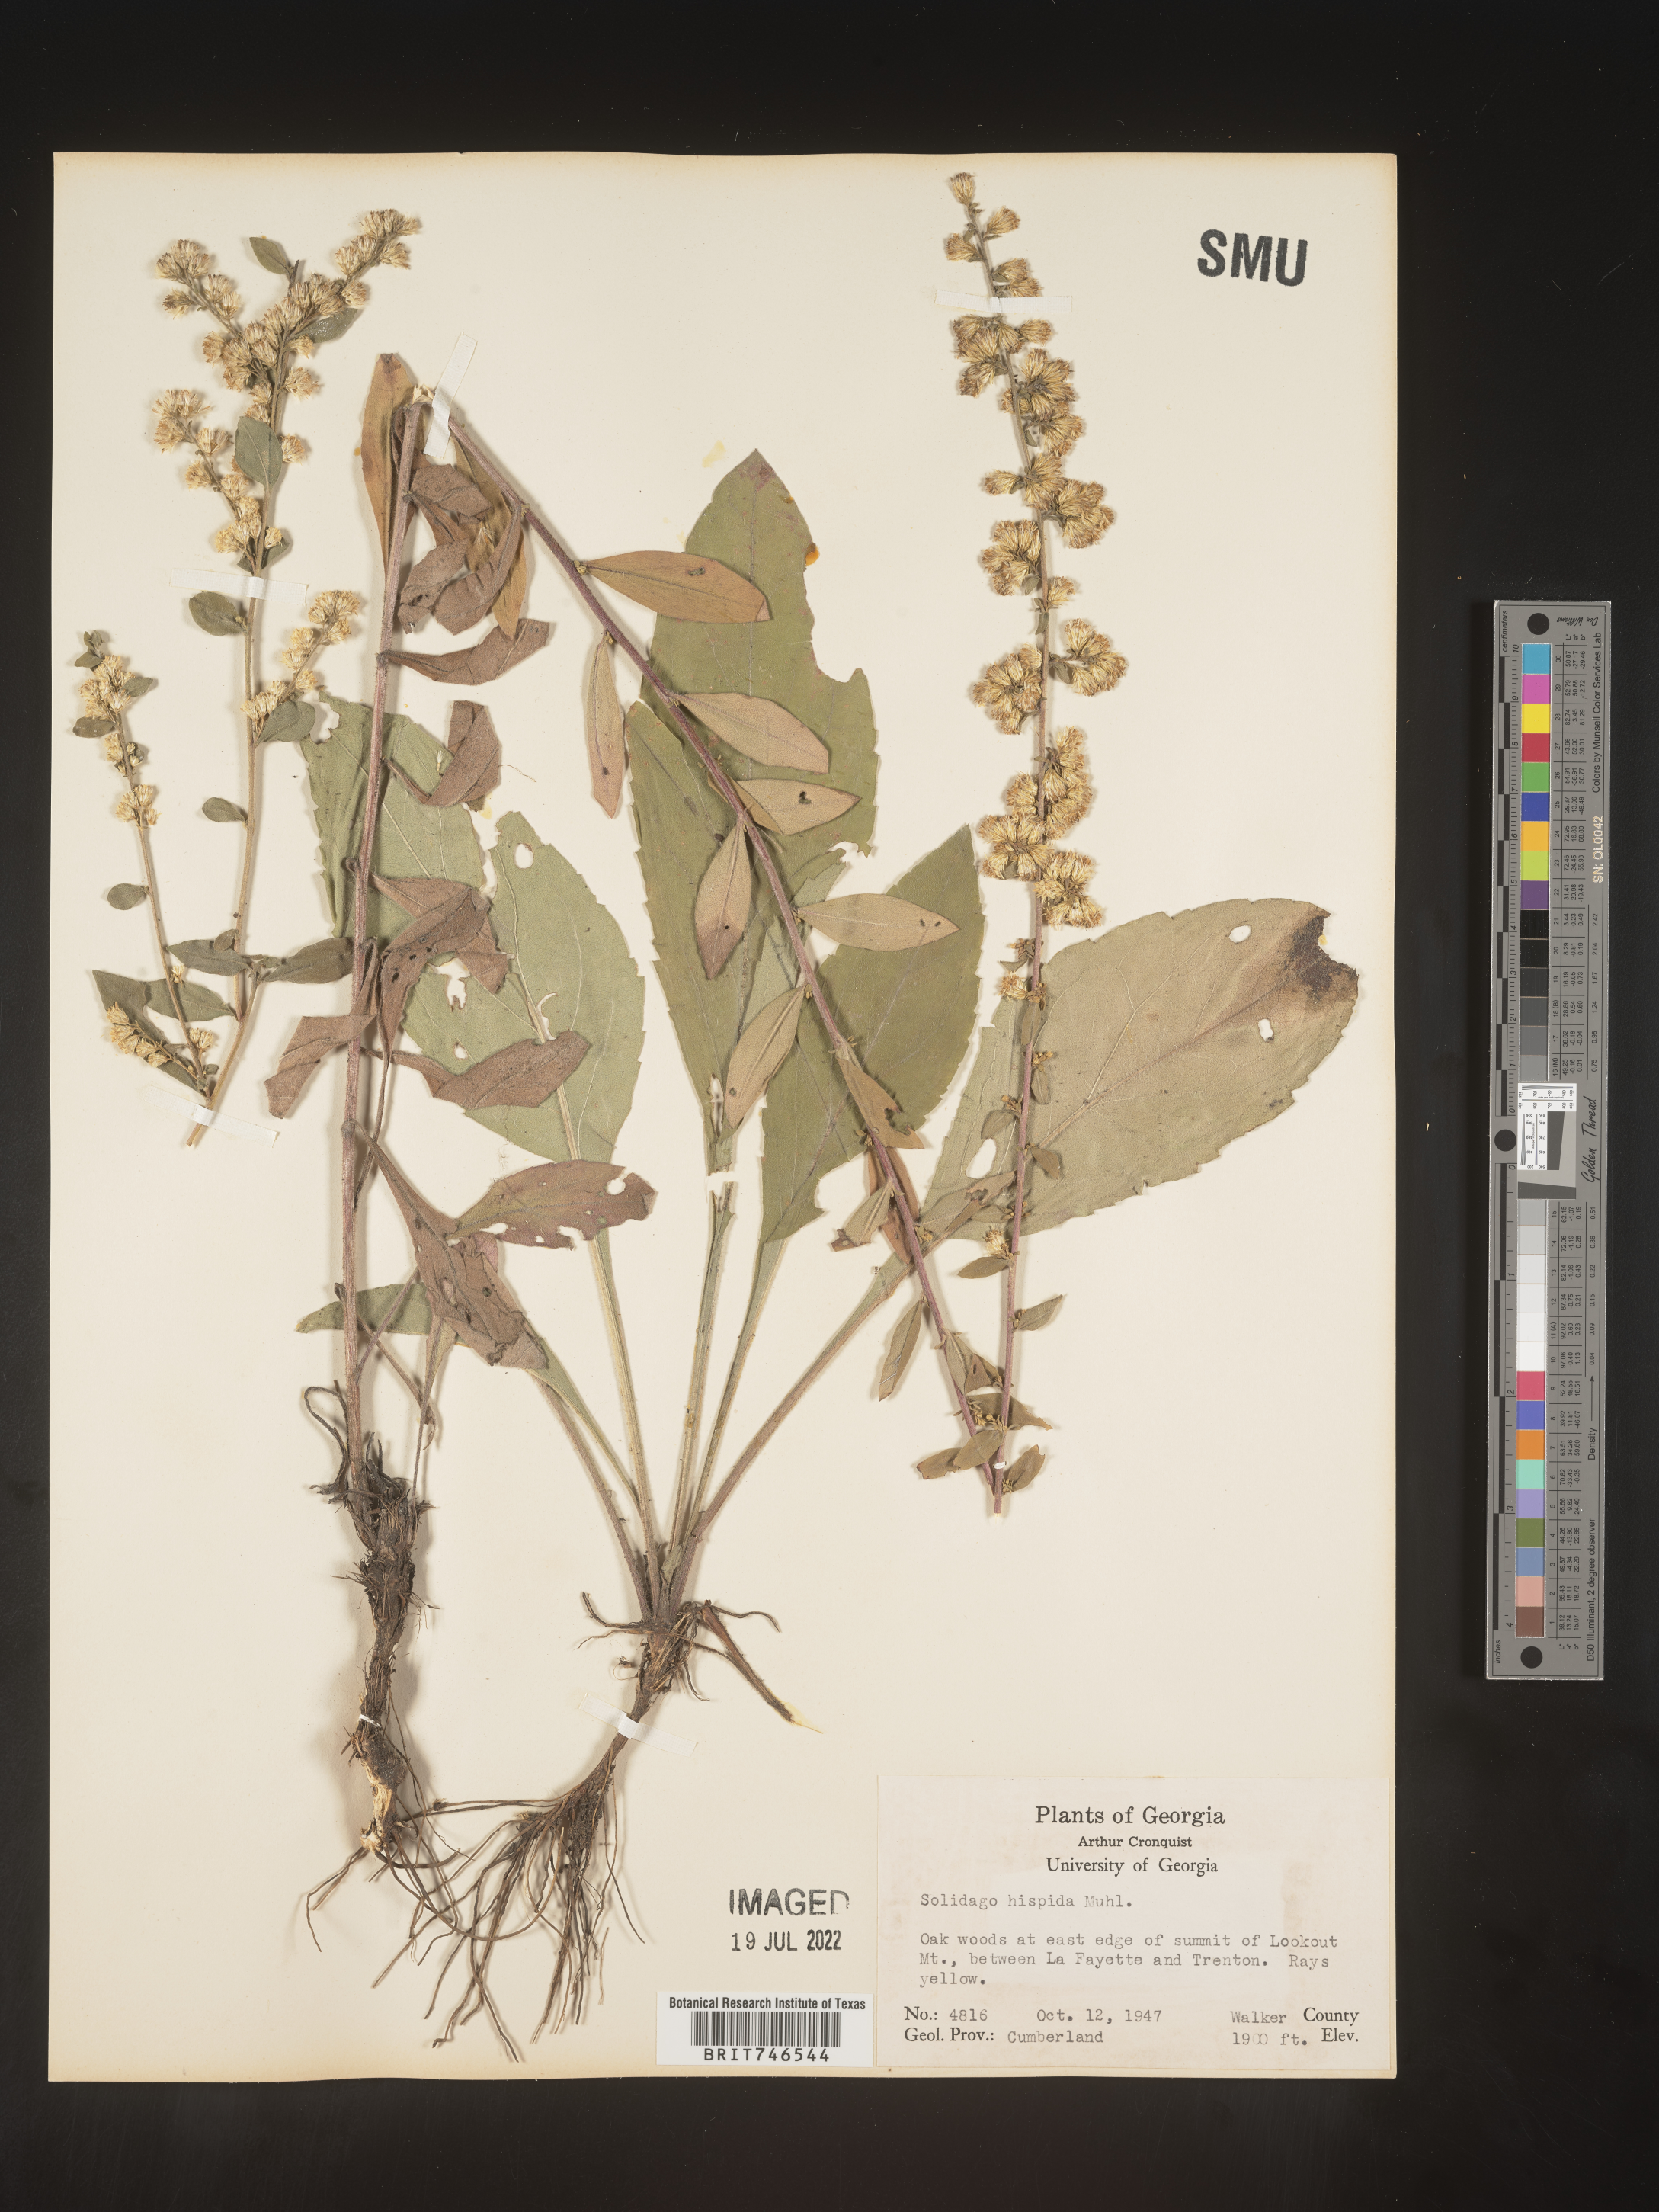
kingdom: Plantae
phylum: Tracheophyta
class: Magnoliopsida
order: Asterales
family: Asteraceae
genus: Solidago
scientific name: Solidago hispida
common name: Hairy goldenrod
